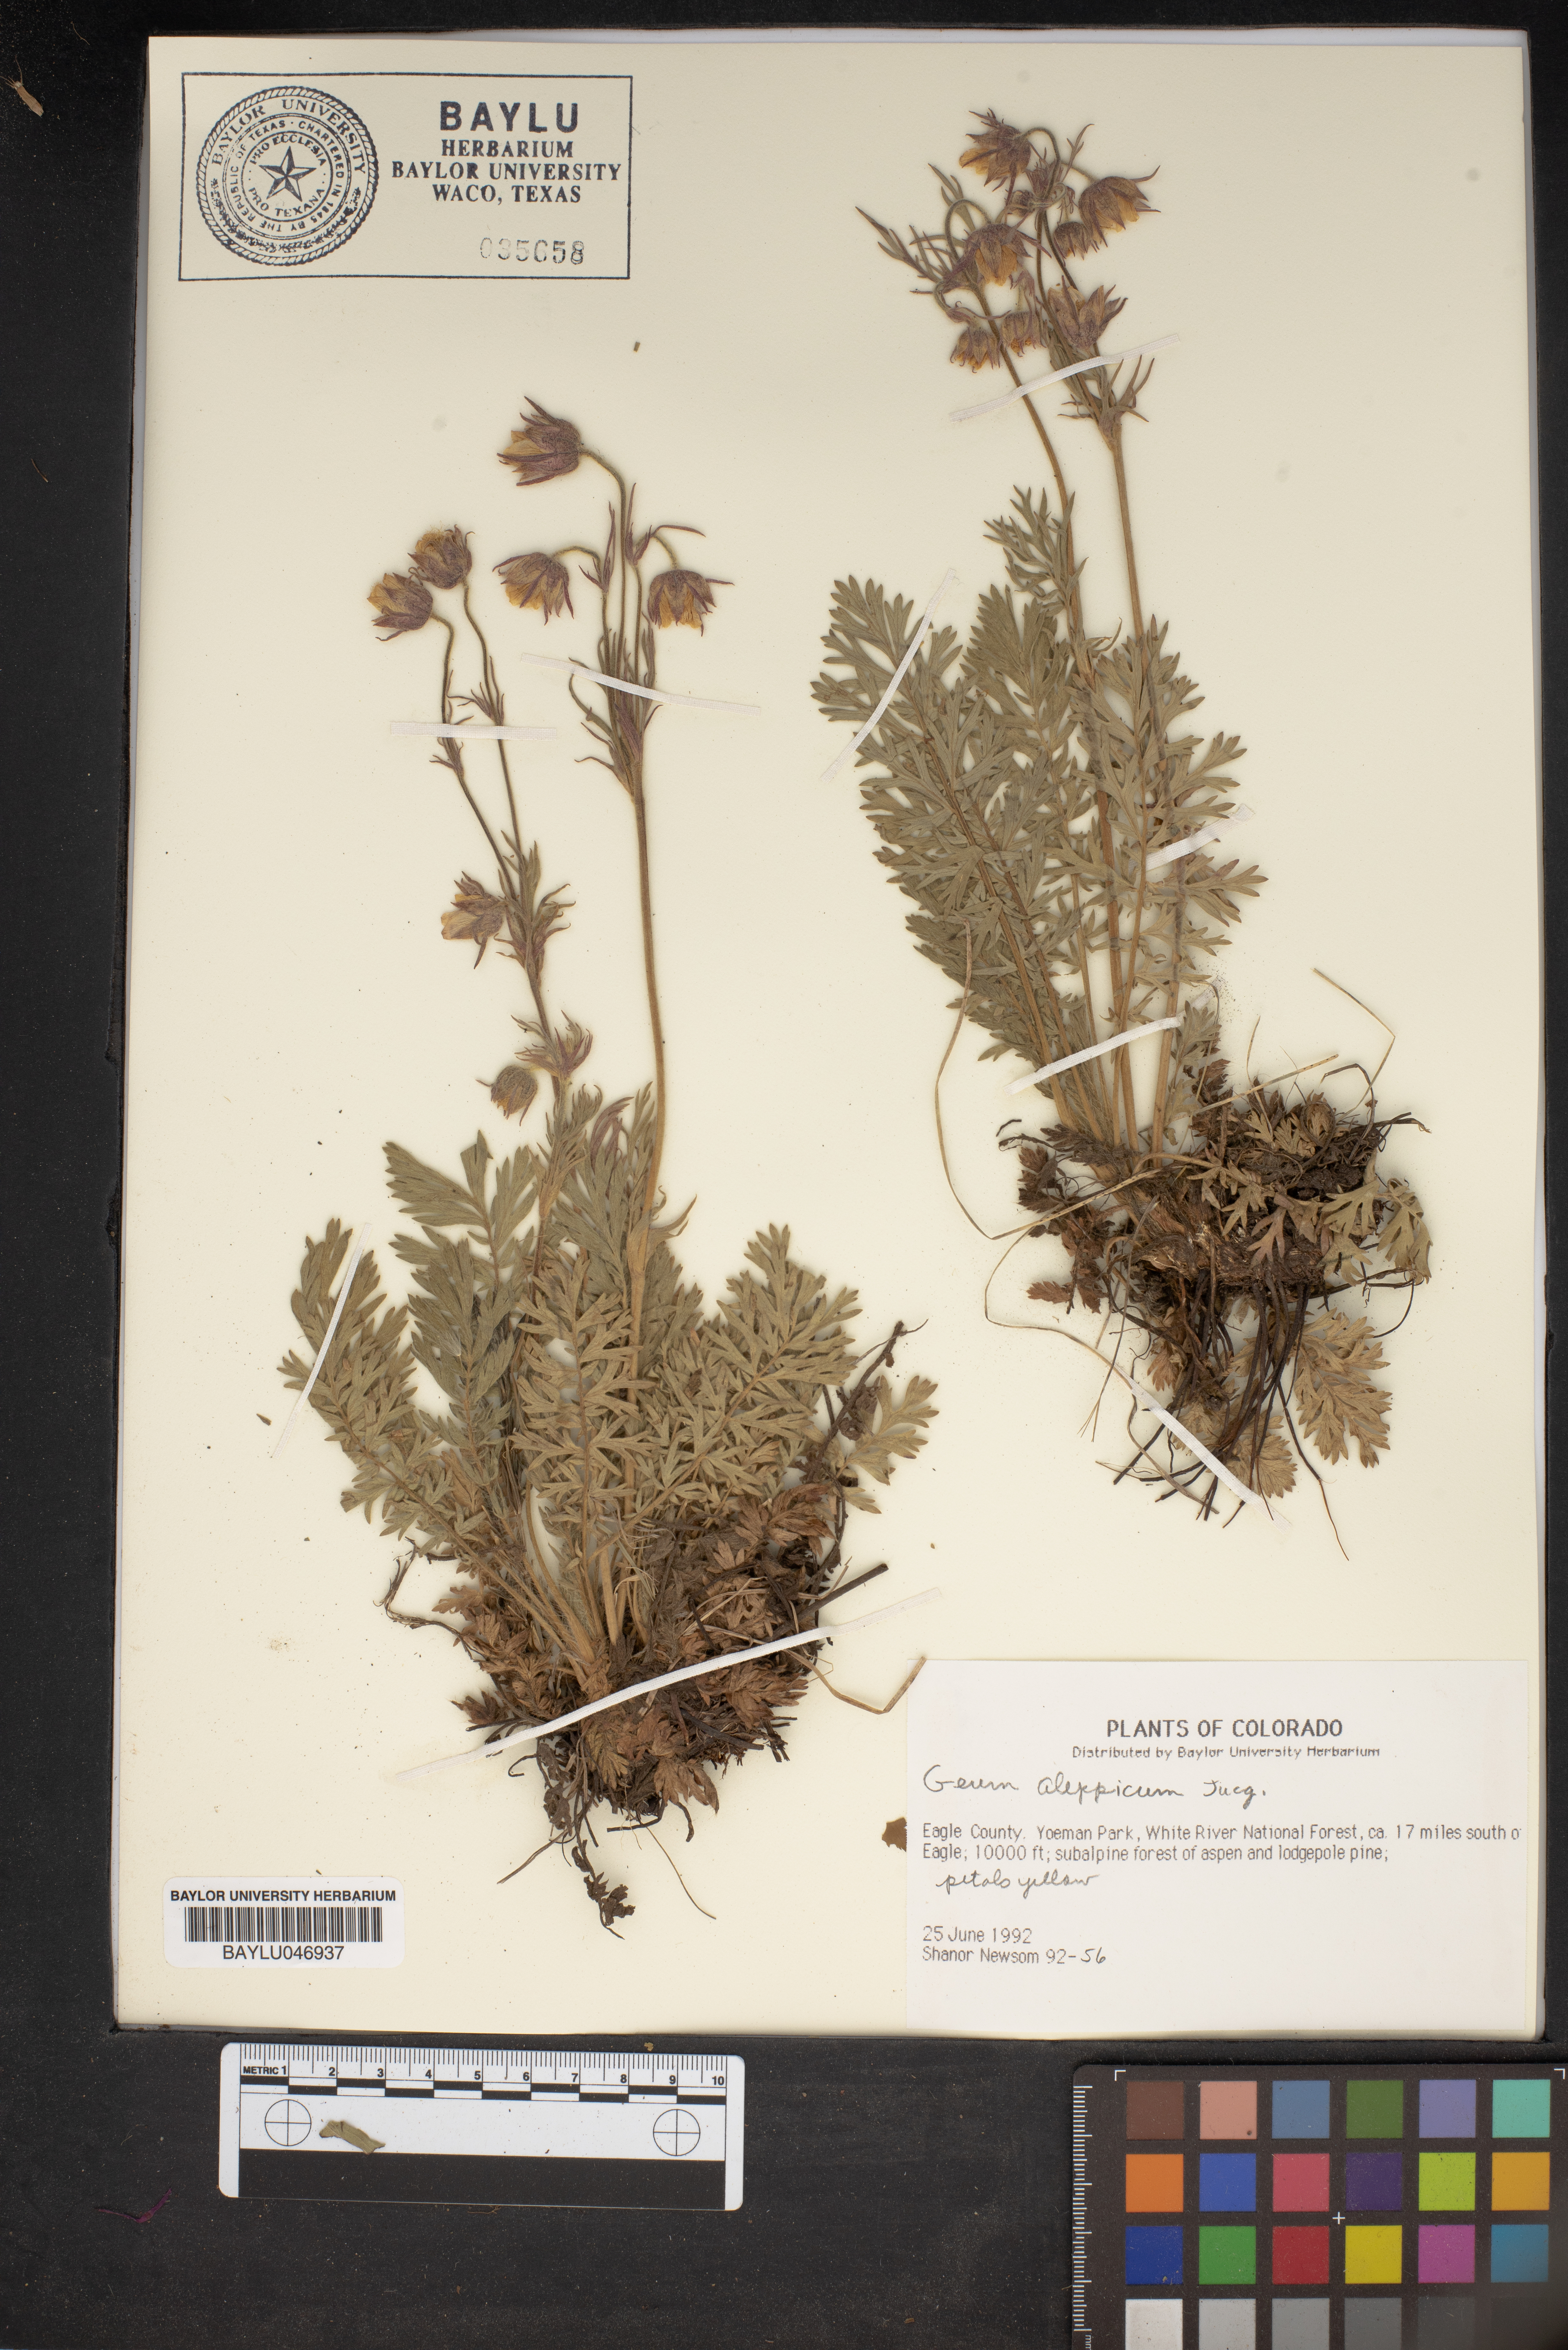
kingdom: Plantae
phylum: Tracheophyta
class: Magnoliopsida
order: Rosales
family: Rosaceae
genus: Geum
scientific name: Geum aleppicum
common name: Yellow avens
